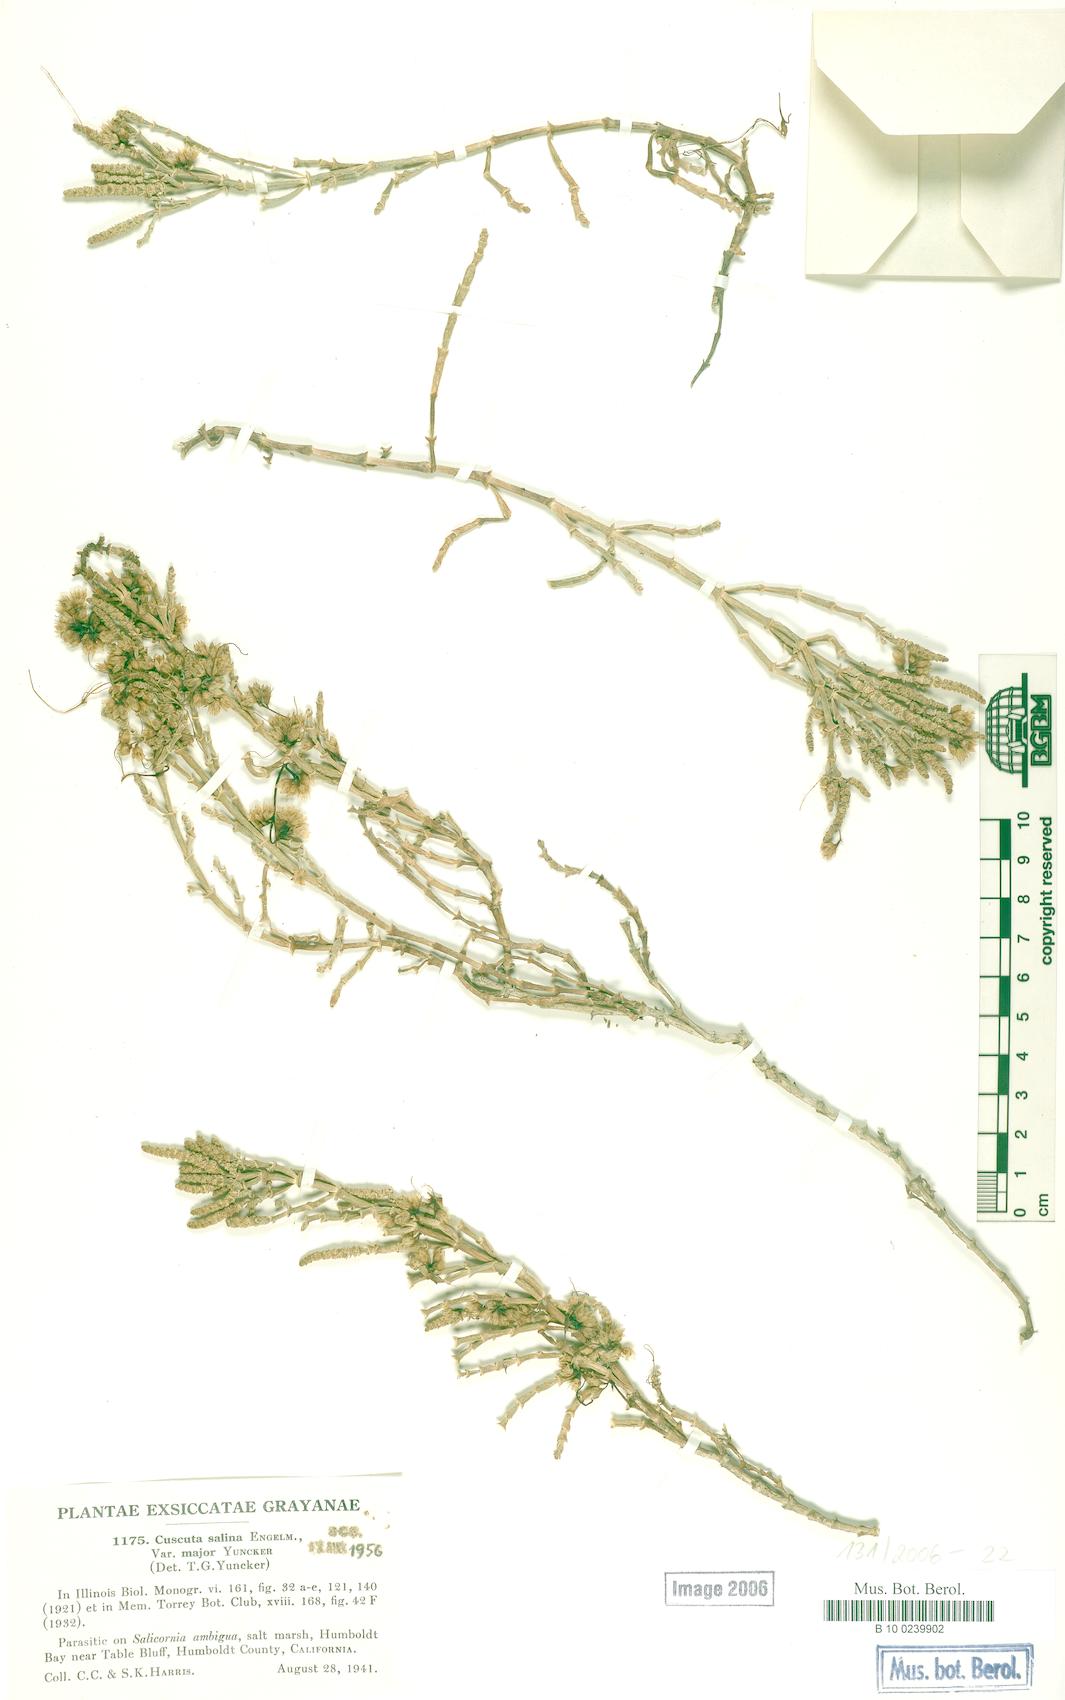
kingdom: Plantae
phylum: Tracheophyta
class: Magnoliopsida
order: Solanales
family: Convolvulaceae
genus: Cuscuta
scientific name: Cuscuta salina
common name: Goldenthread
